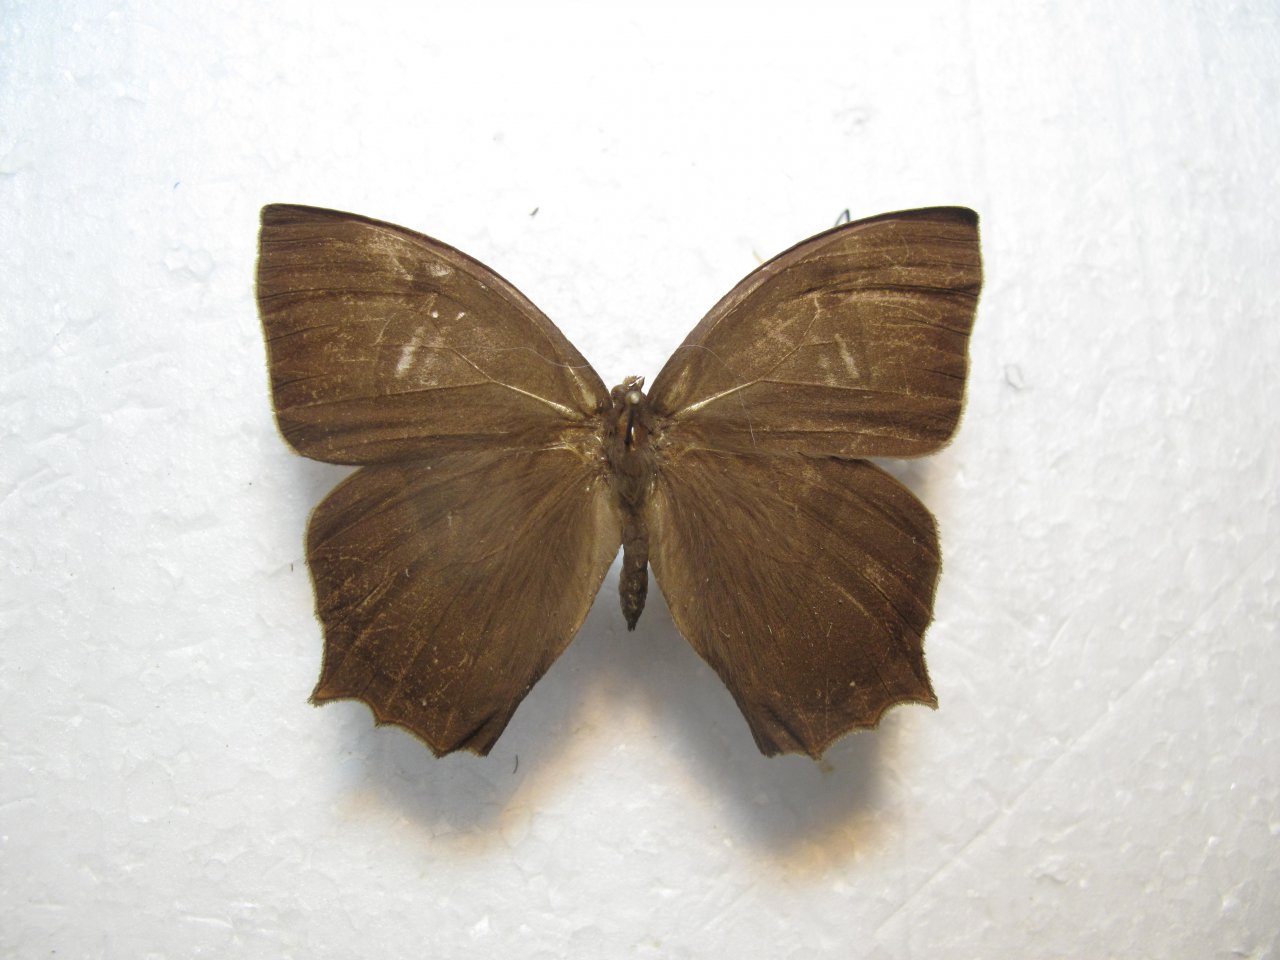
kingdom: Animalia
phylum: Arthropoda
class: Insecta
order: Lepidoptera
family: Nymphalidae
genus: Taygetis
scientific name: Taygetis virgilia
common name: Stub-tailed Satyr
